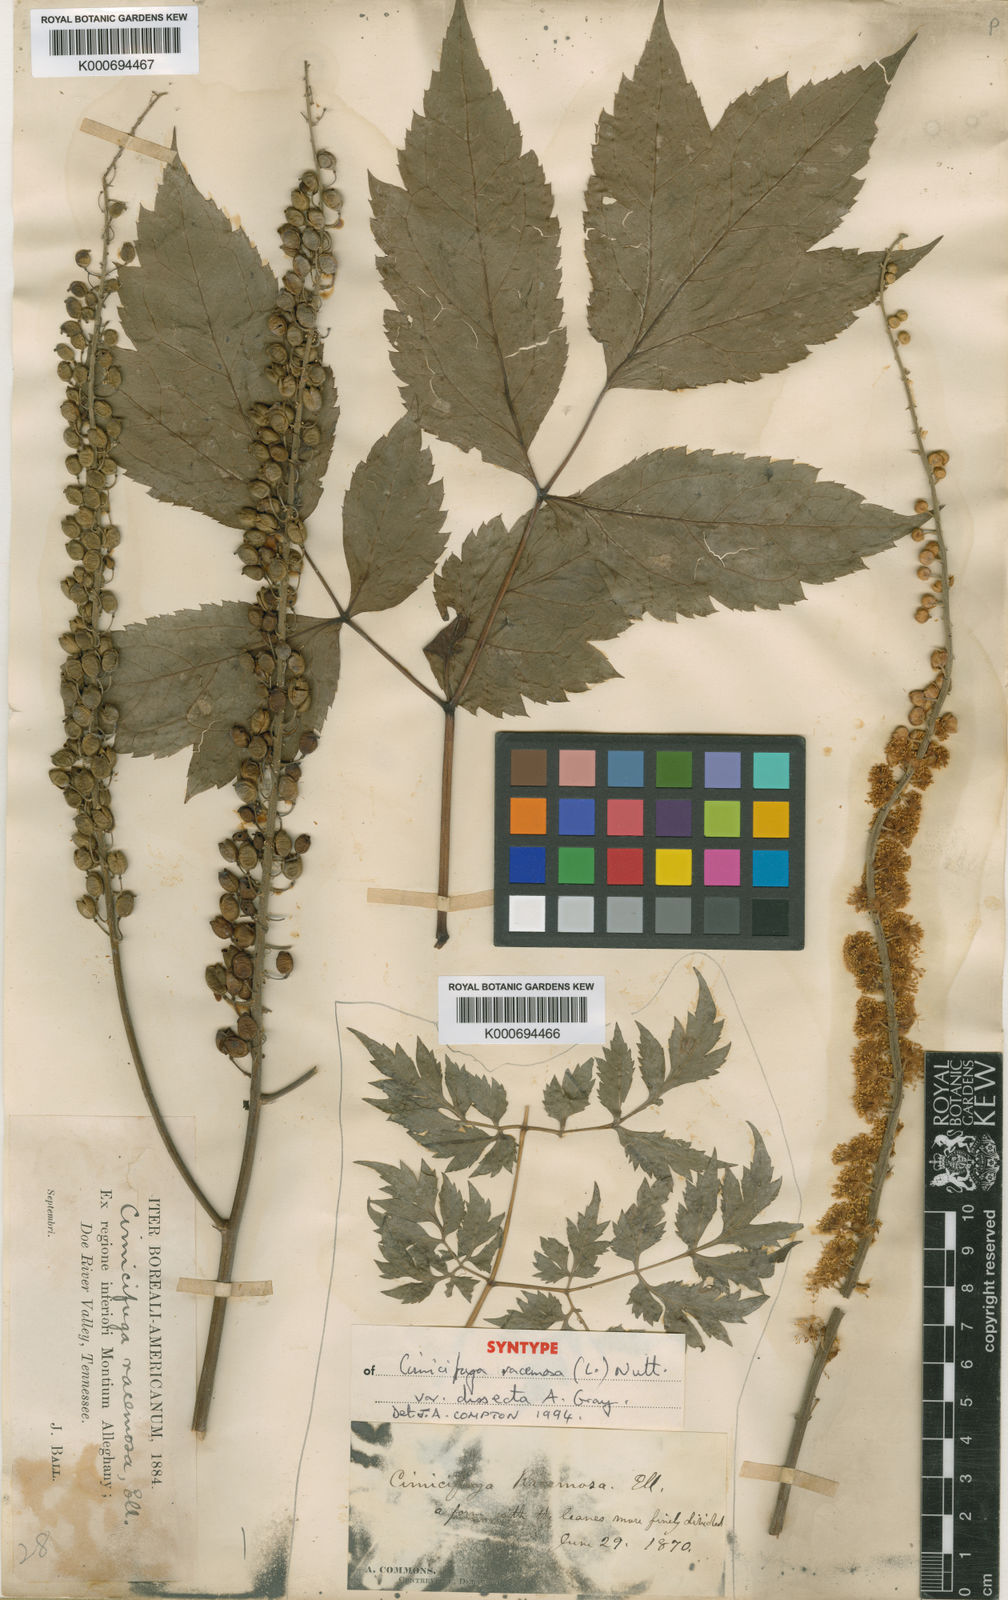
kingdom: Plantae
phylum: Tracheophyta
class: Magnoliopsida
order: Ranunculales
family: Ranunculaceae
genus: Actaea
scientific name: Actaea racemosa
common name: Black cohosh
